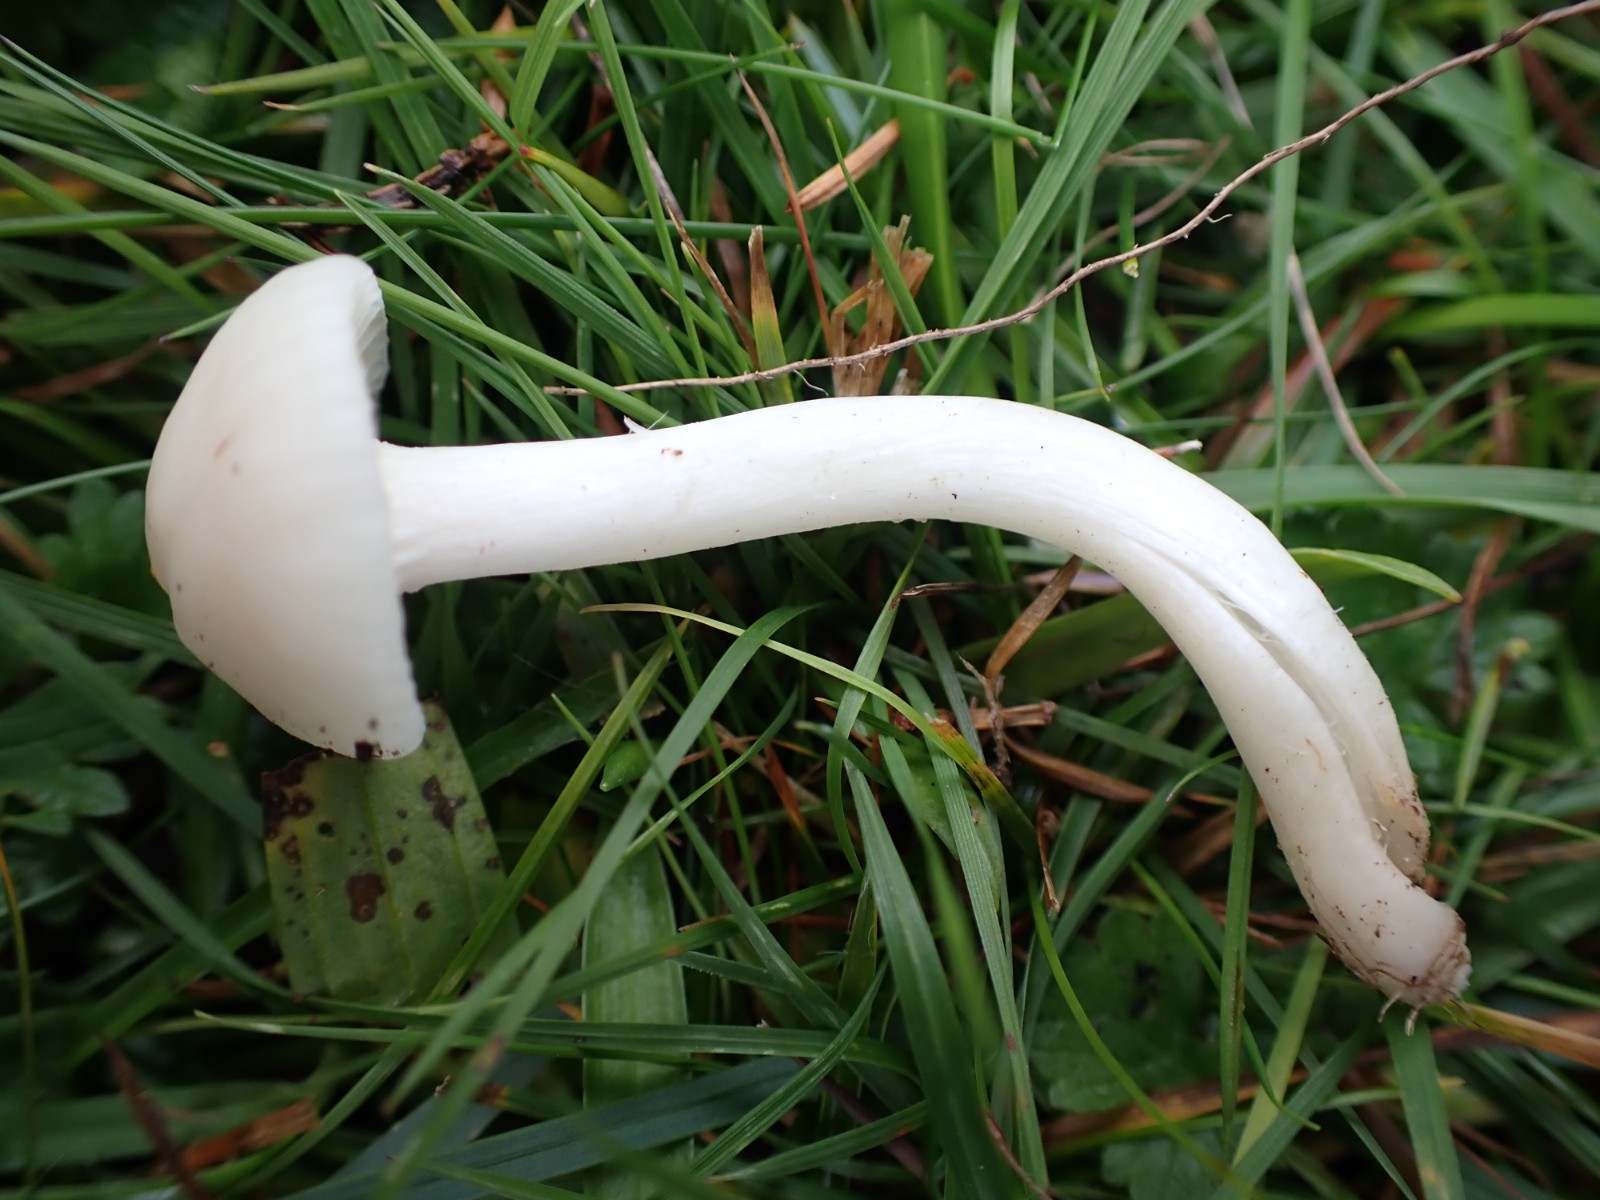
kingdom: Fungi
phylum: Basidiomycota
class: Agaricomycetes
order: Agaricales
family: Hygrophoraceae
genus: Cuphophyllus
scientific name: Cuphophyllus
